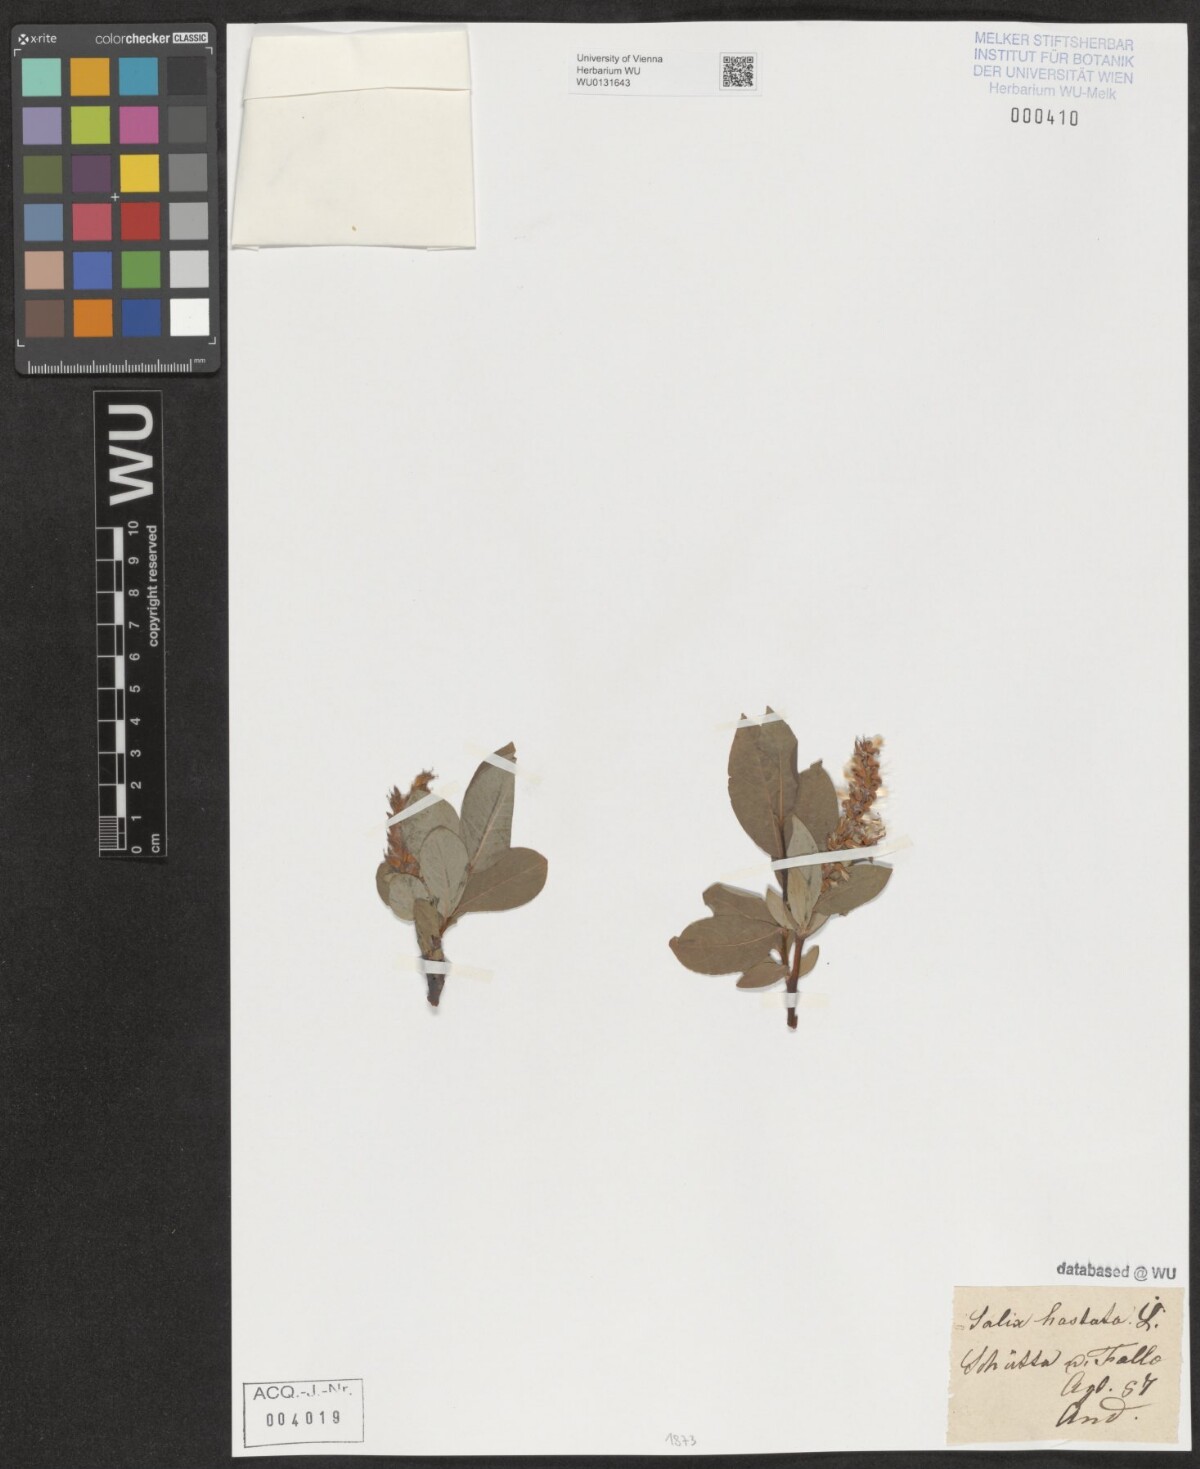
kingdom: Plantae
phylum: Tracheophyta
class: Magnoliopsida
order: Malpighiales
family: Salicaceae
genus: Salix
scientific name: Salix hastata
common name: Halberd willow
